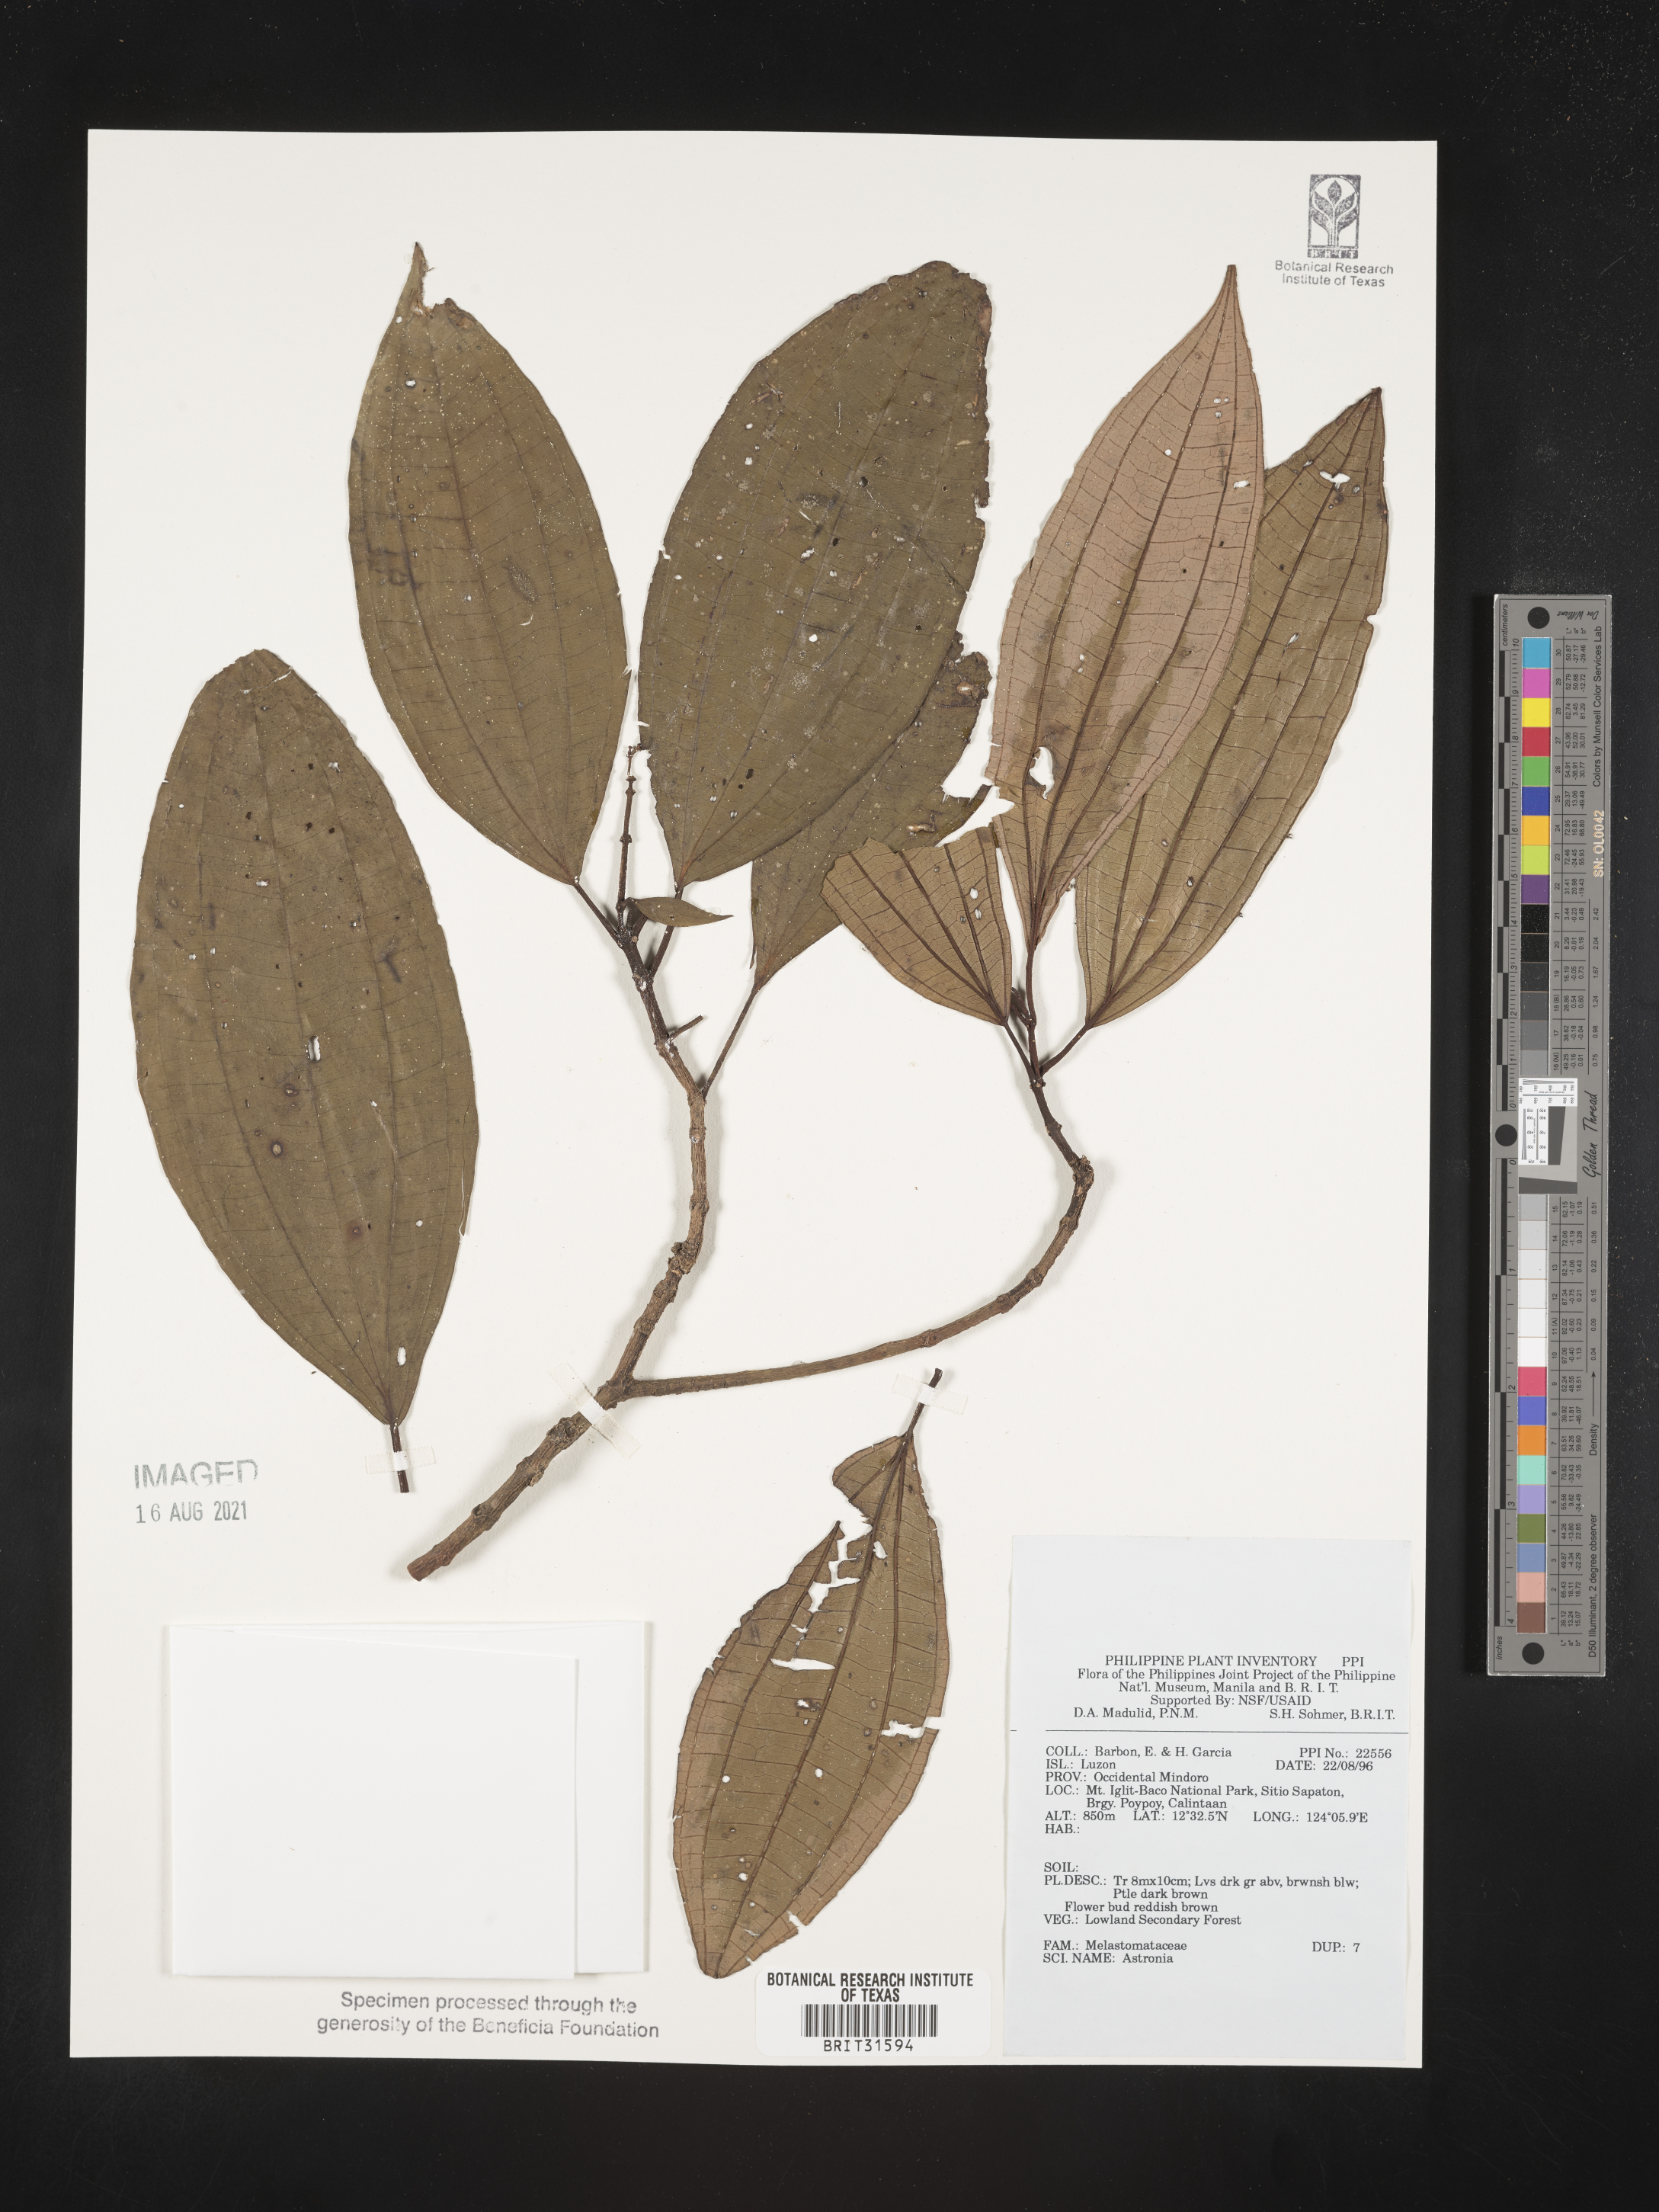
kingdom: Plantae
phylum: Tracheophyta
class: Magnoliopsida
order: Myrtales
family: Melastomataceae
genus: Astronia
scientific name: Astronia
